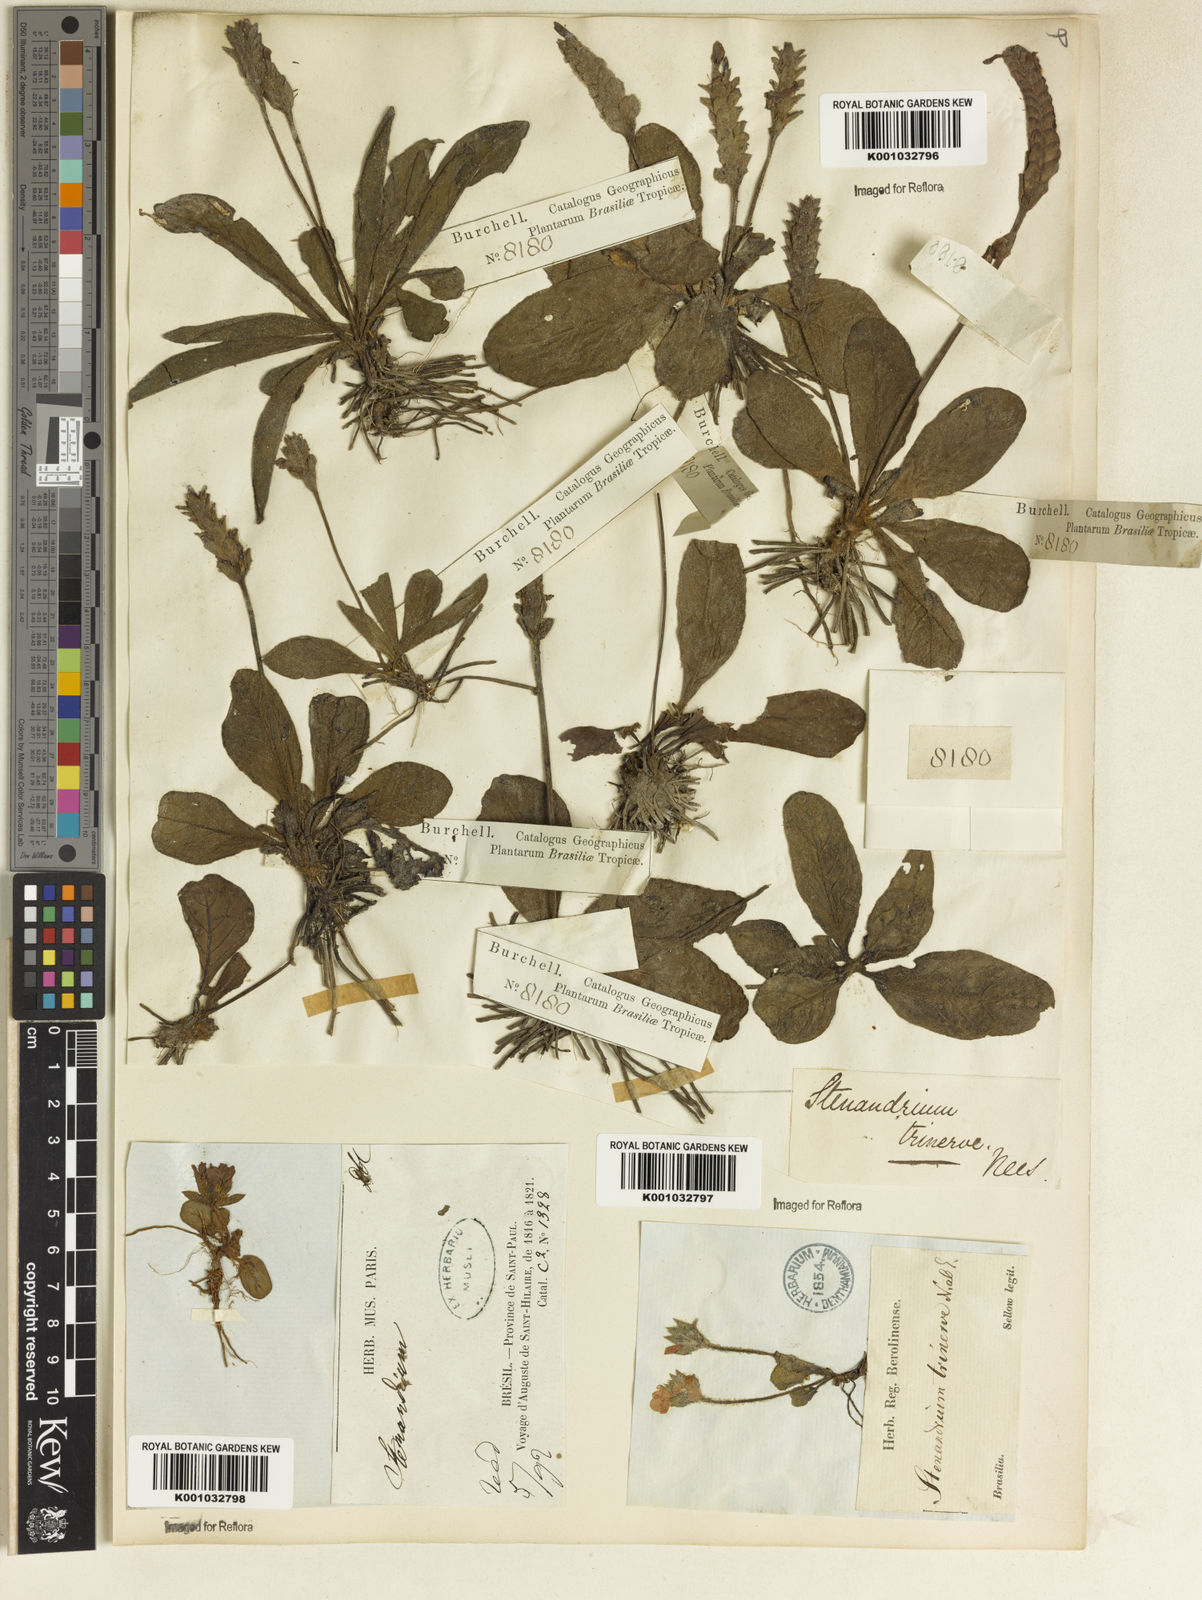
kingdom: Plantae
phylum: Tracheophyta
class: Magnoliopsida
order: Lamiales
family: Acanthaceae
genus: Stenandrium
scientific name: Stenandrium dulce
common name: Pinklet
